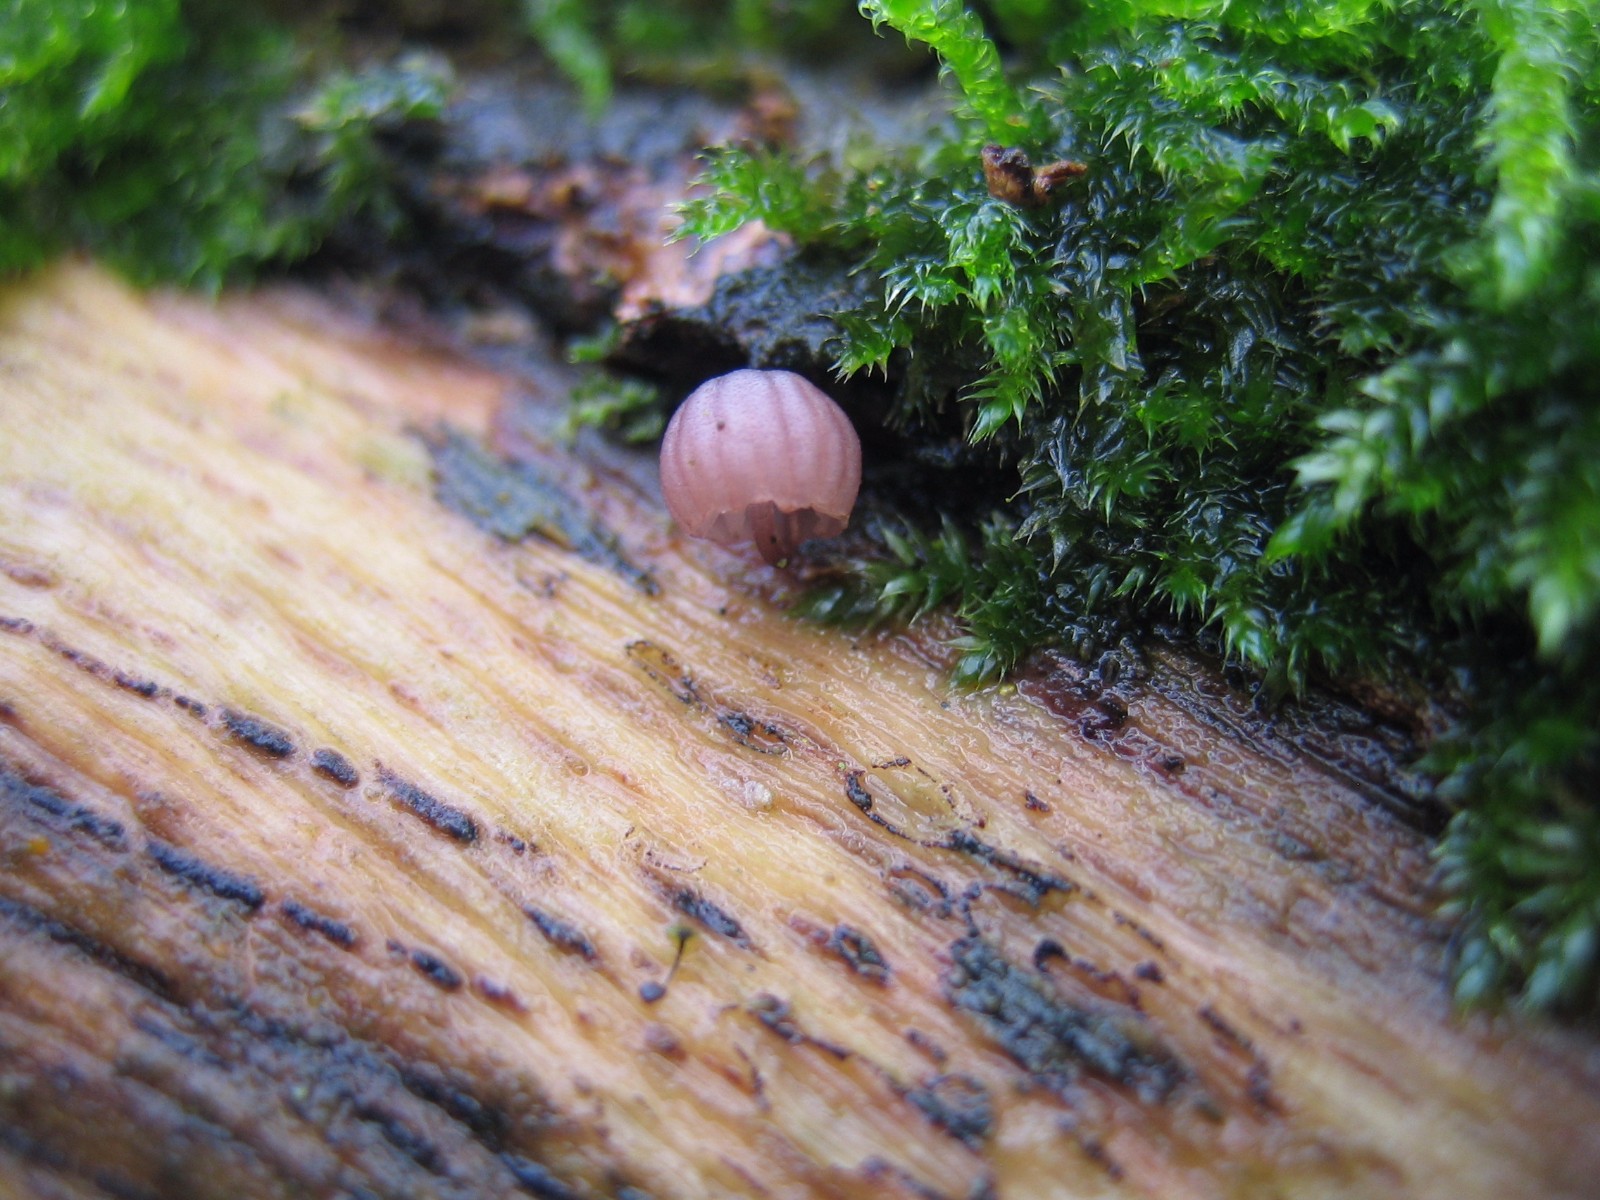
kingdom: Fungi
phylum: Basidiomycota
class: Agaricomycetes
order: Agaricales
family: Mycenaceae
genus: Mycena
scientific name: Mycena meliigena
